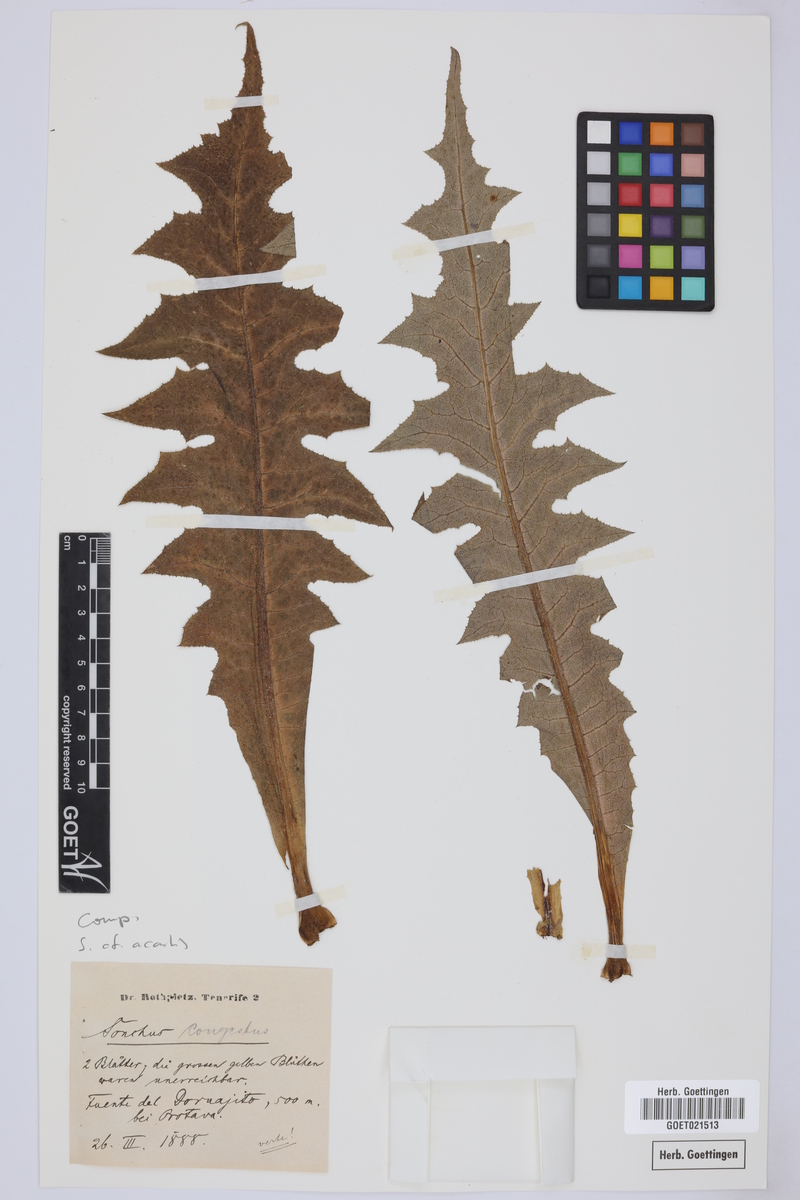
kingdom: Plantae
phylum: Tracheophyta
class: Magnoliopsida
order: Asterales
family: Asteraceae
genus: Sonchus
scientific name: Sonchus acaulis
